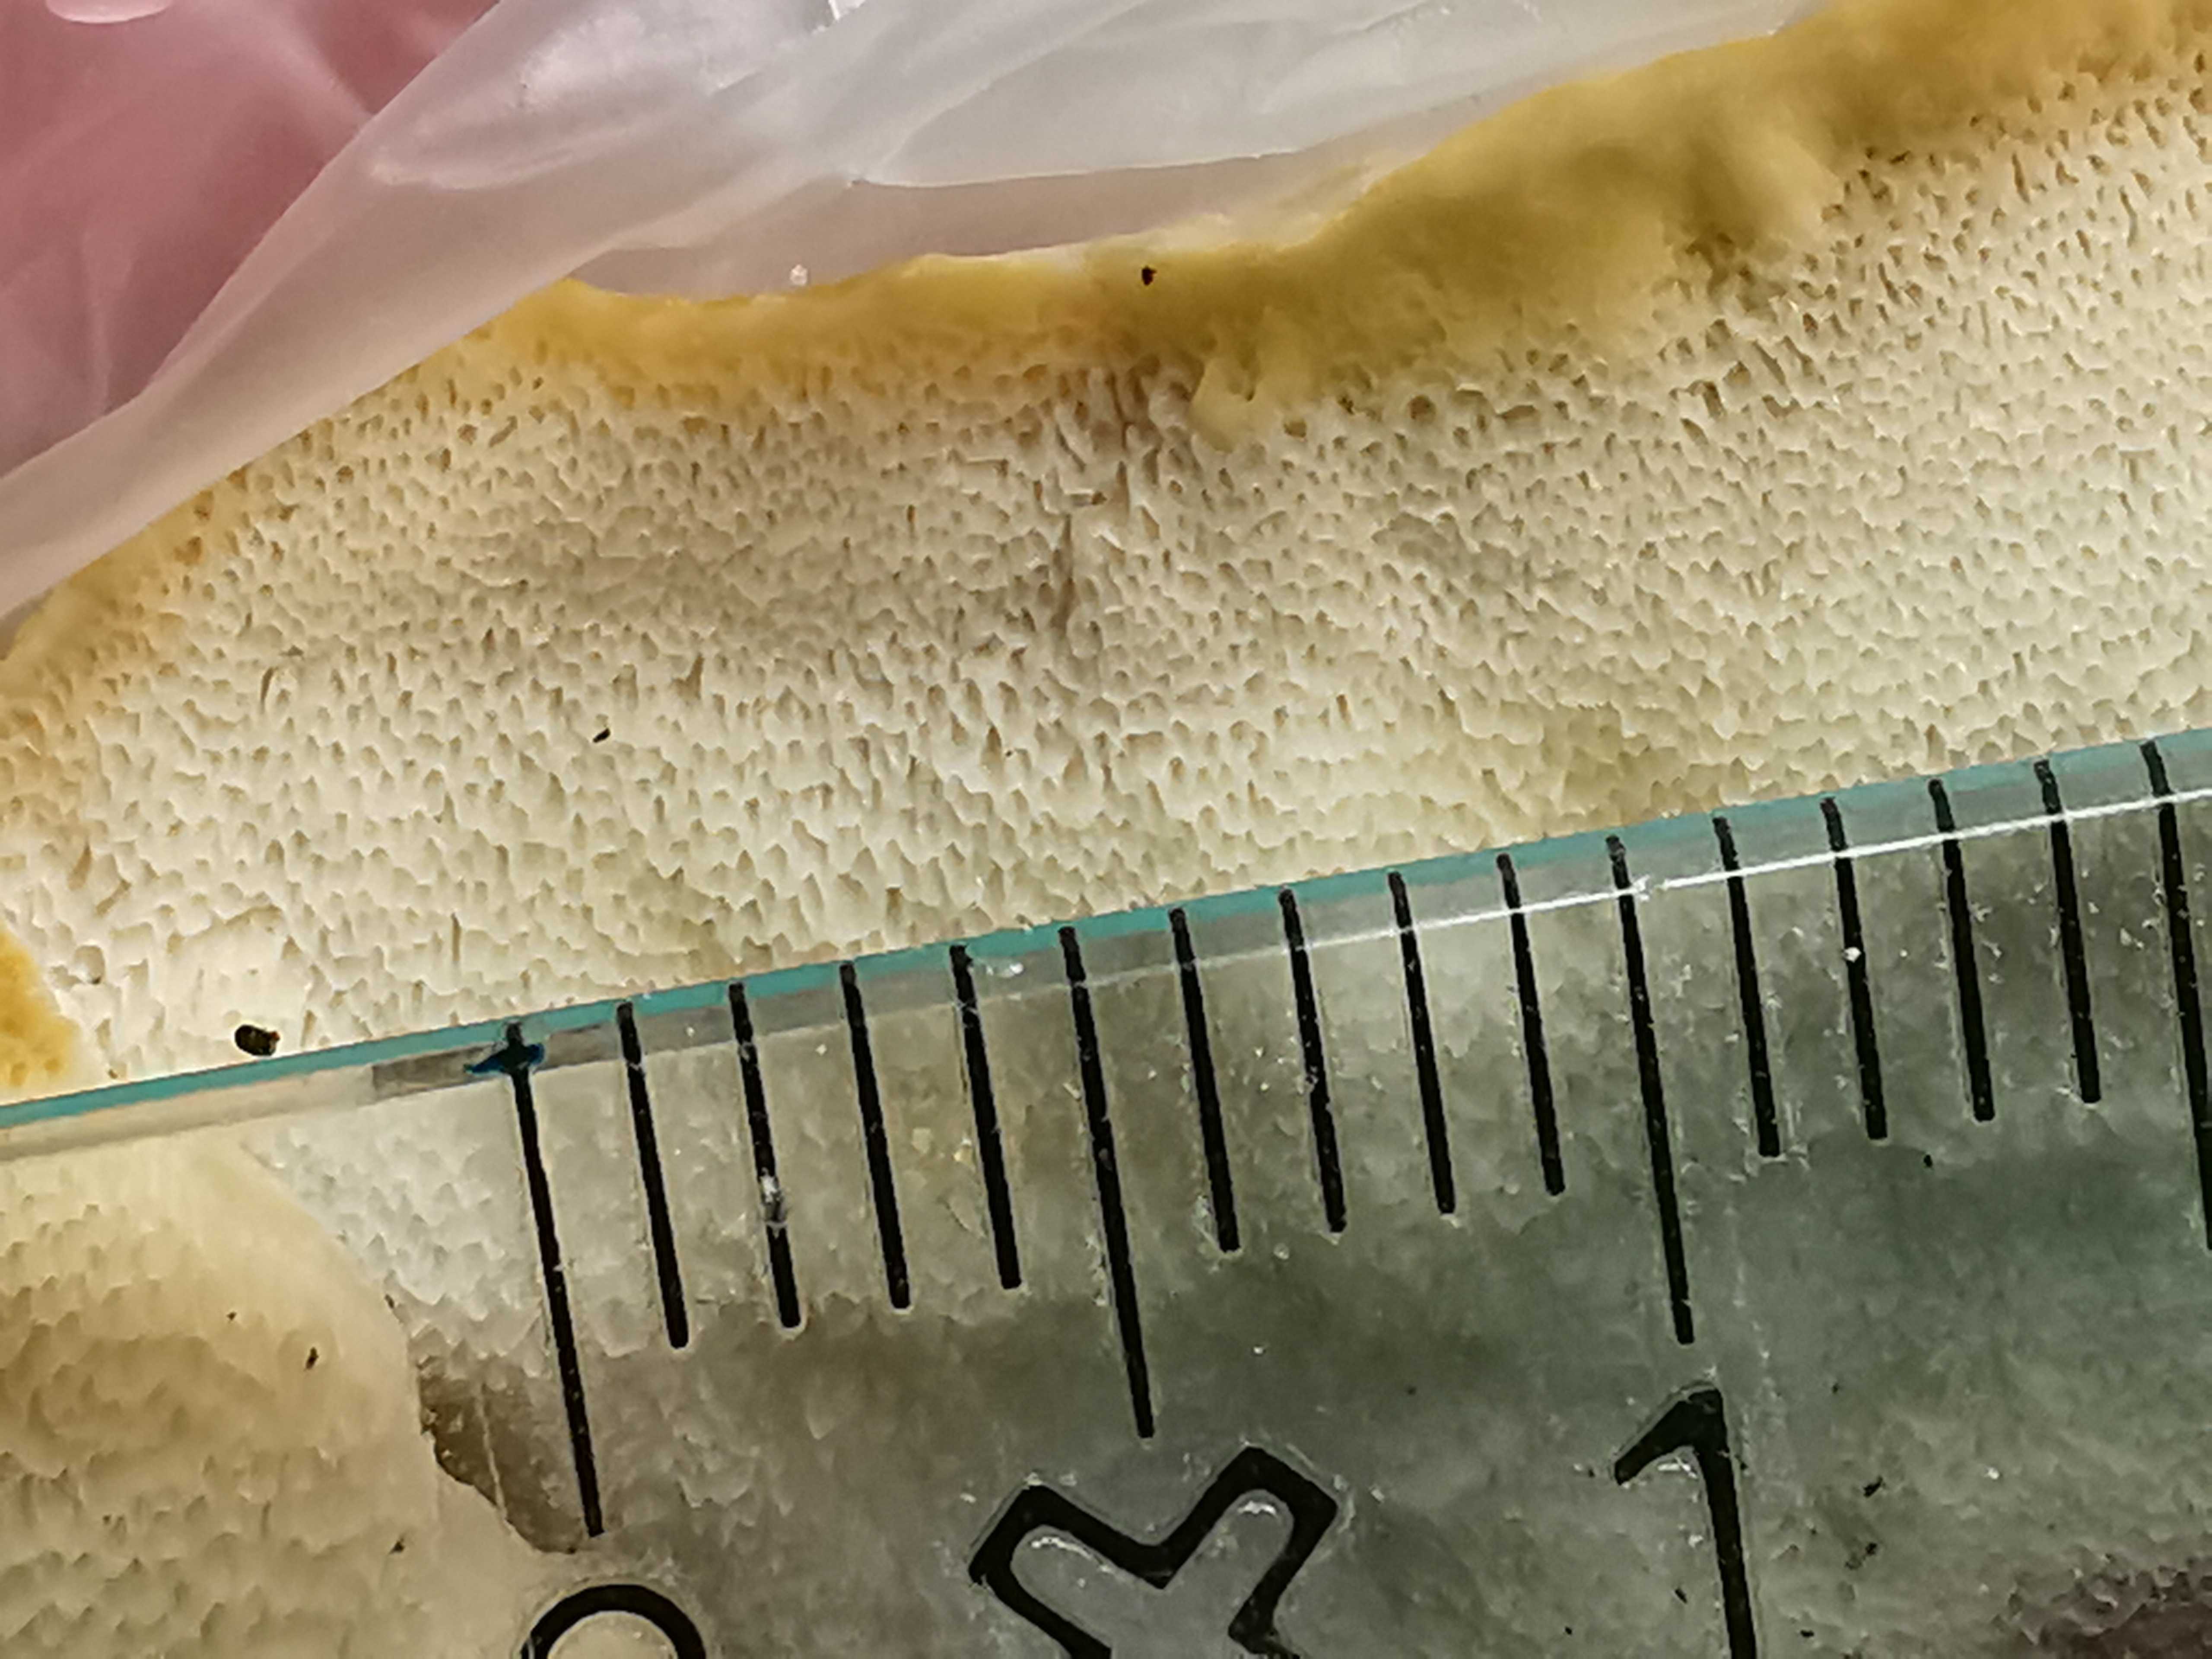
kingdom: Fungi
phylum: Basidiomycota
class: Agaricomycetes
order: Polyporales
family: Steccherinaceae
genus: Antrodiella
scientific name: Antrodiella serpula
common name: gulrandet elastikporesvamp
